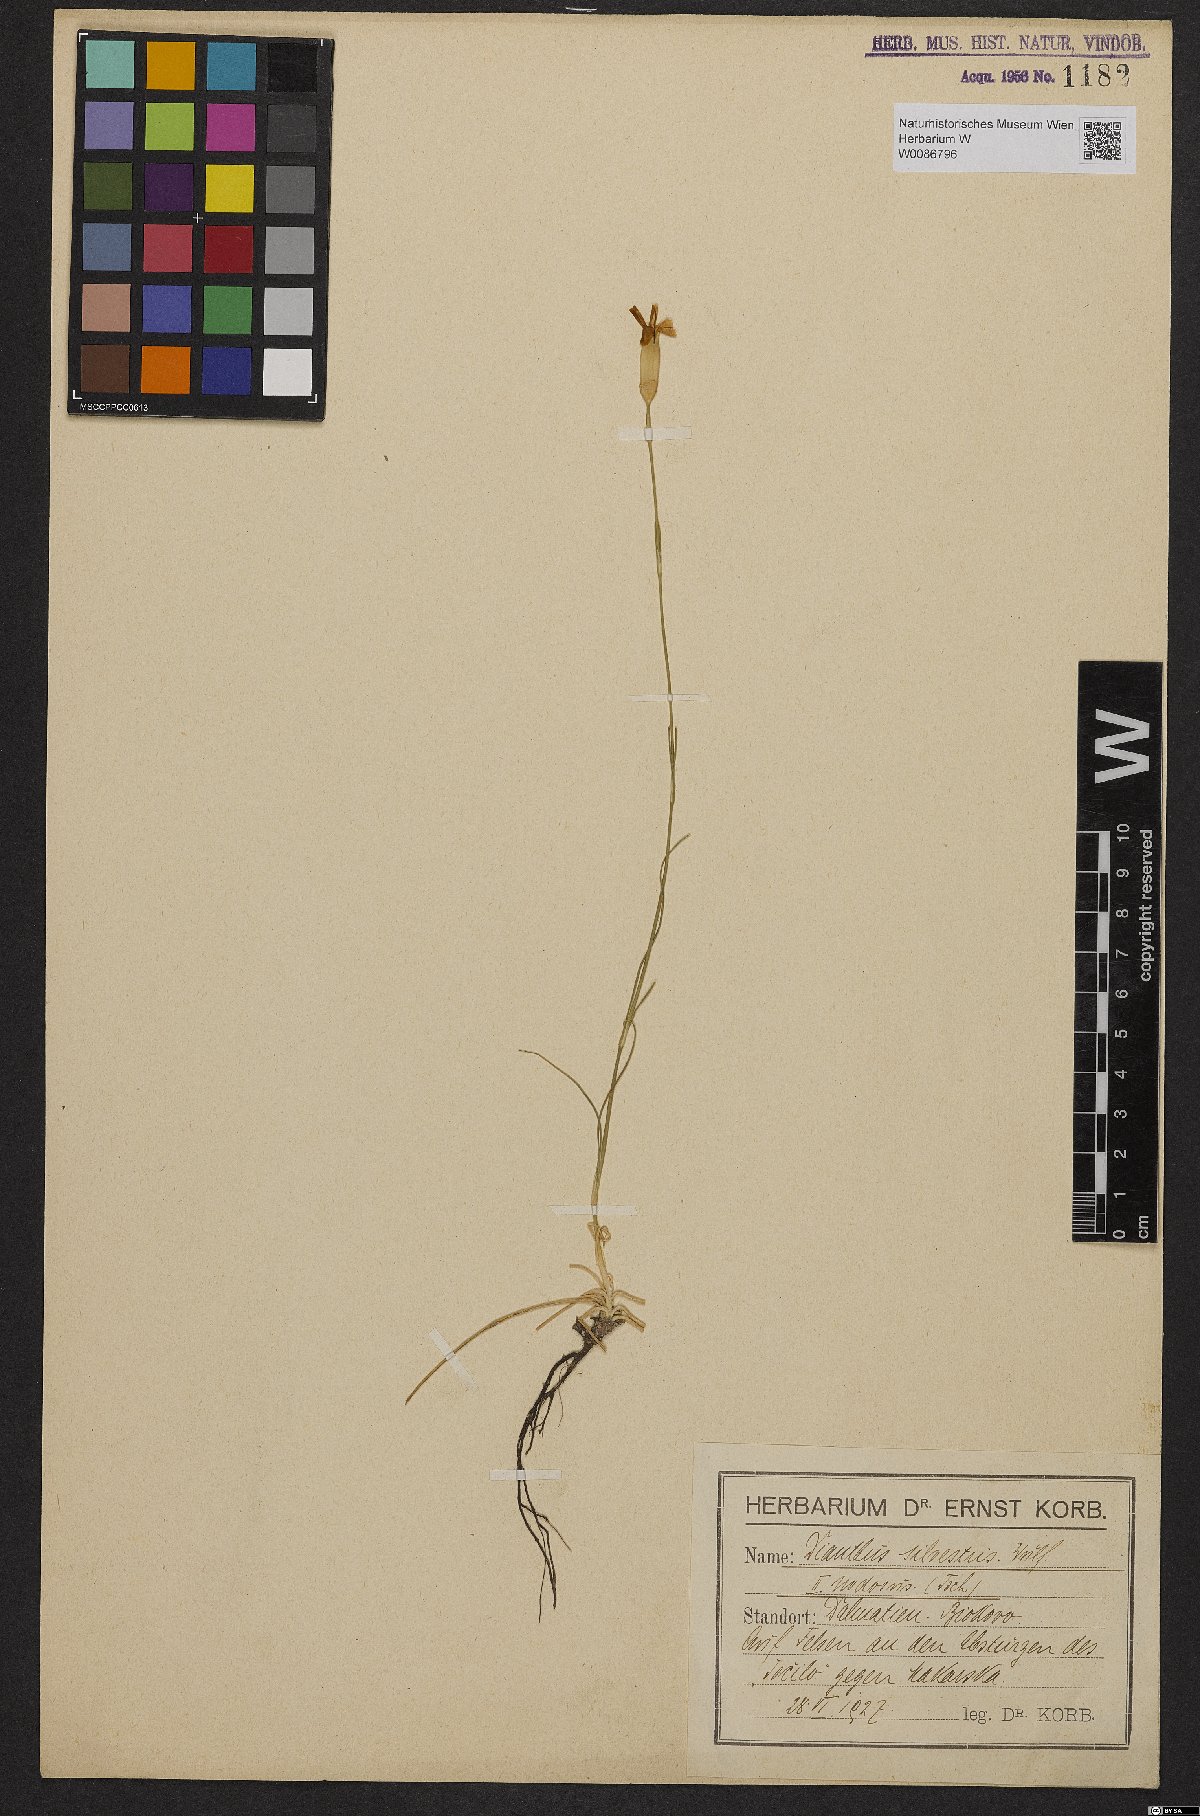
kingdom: Plantae
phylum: Tracheophyta
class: Magnoliopsida
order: Caryophyllales
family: Caryophyllaceae
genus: Dianthus
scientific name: Dianthus sylvestris
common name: Wood pink
